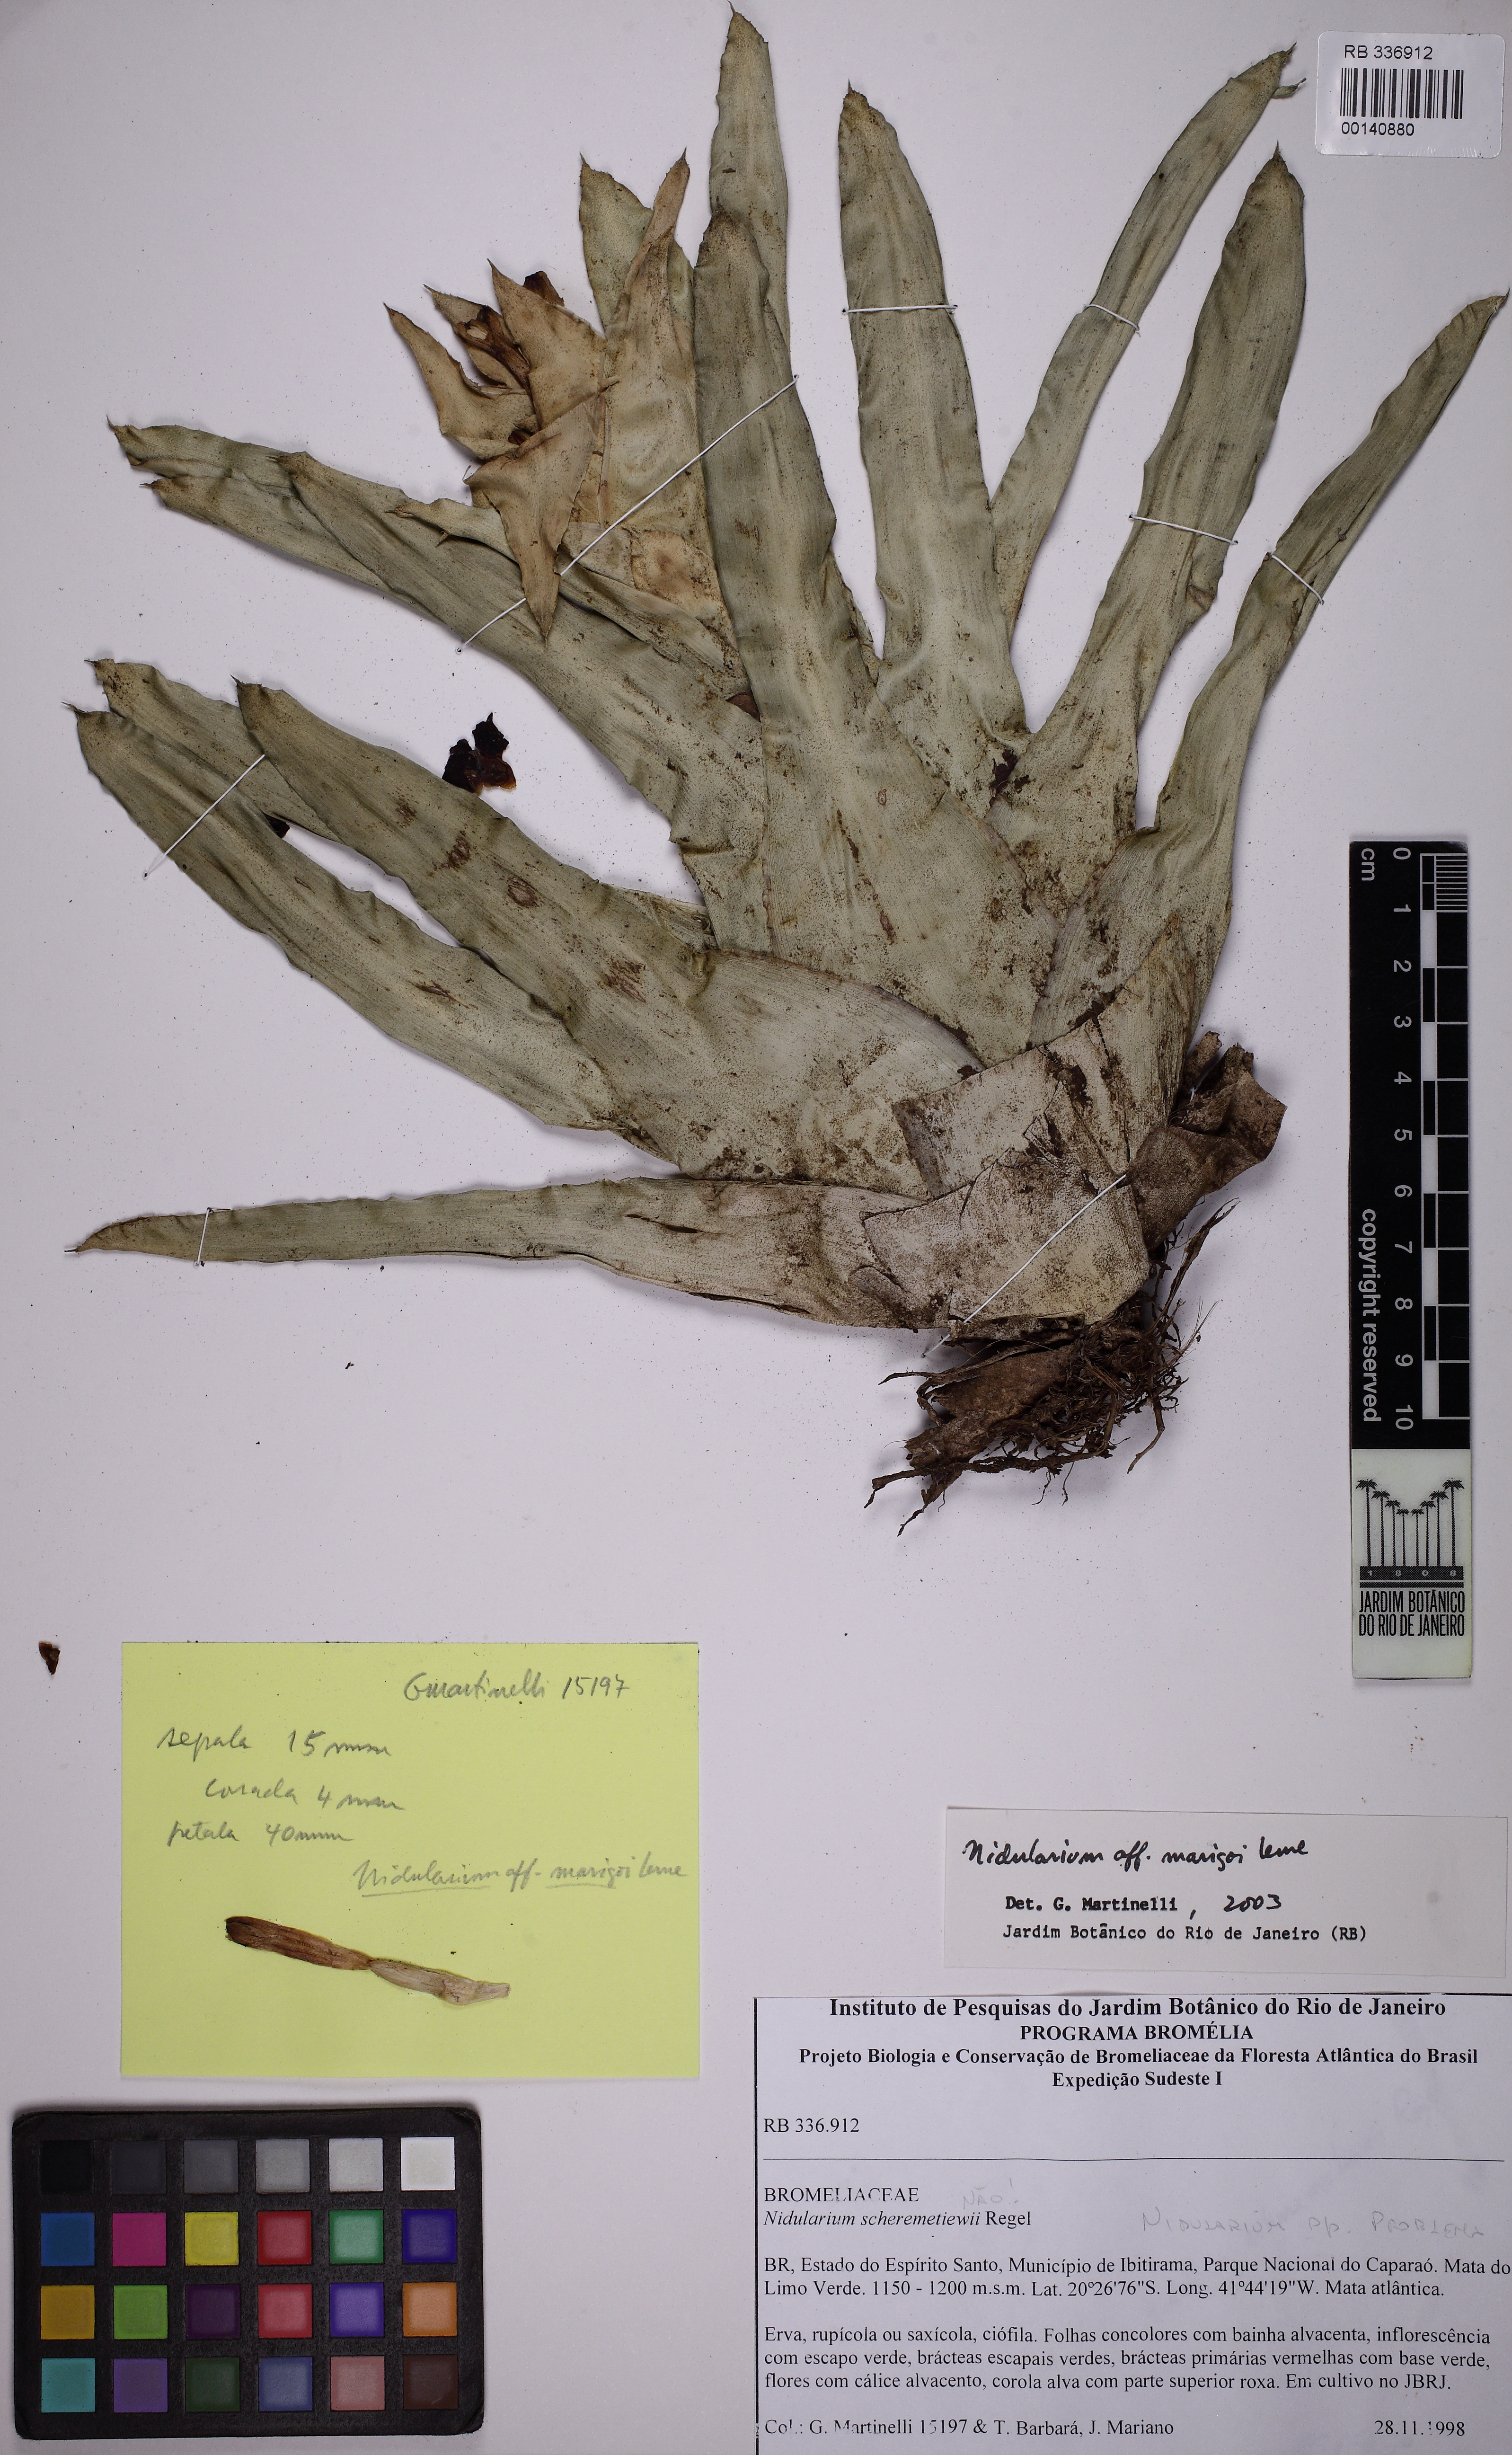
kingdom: Plantae
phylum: Tracheophyta
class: Liliopsida
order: Poales
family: Bromeliaceae
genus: Nidularium
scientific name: Nidularium marigoi
